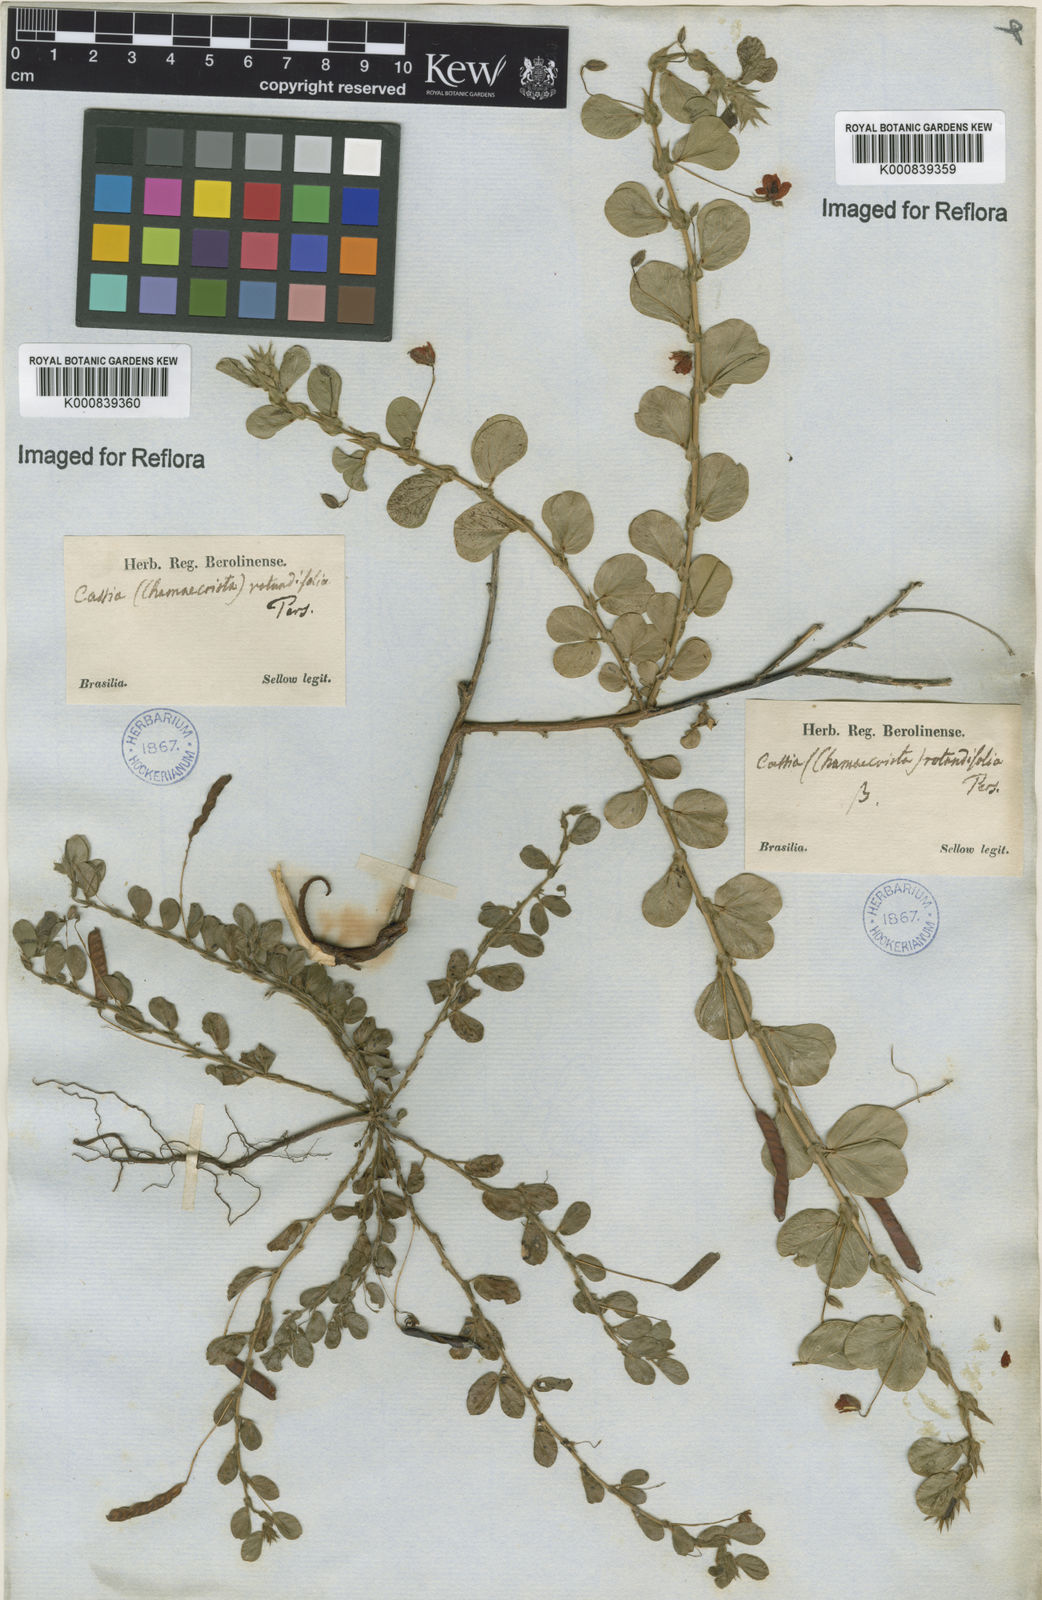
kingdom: Plantae
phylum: Tracheophyta
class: Magnoliopsida
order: Fabales
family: Fabaceae
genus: Chamaecrista
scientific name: Chamaecrista rotundifolia
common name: Round-leaf cassia
